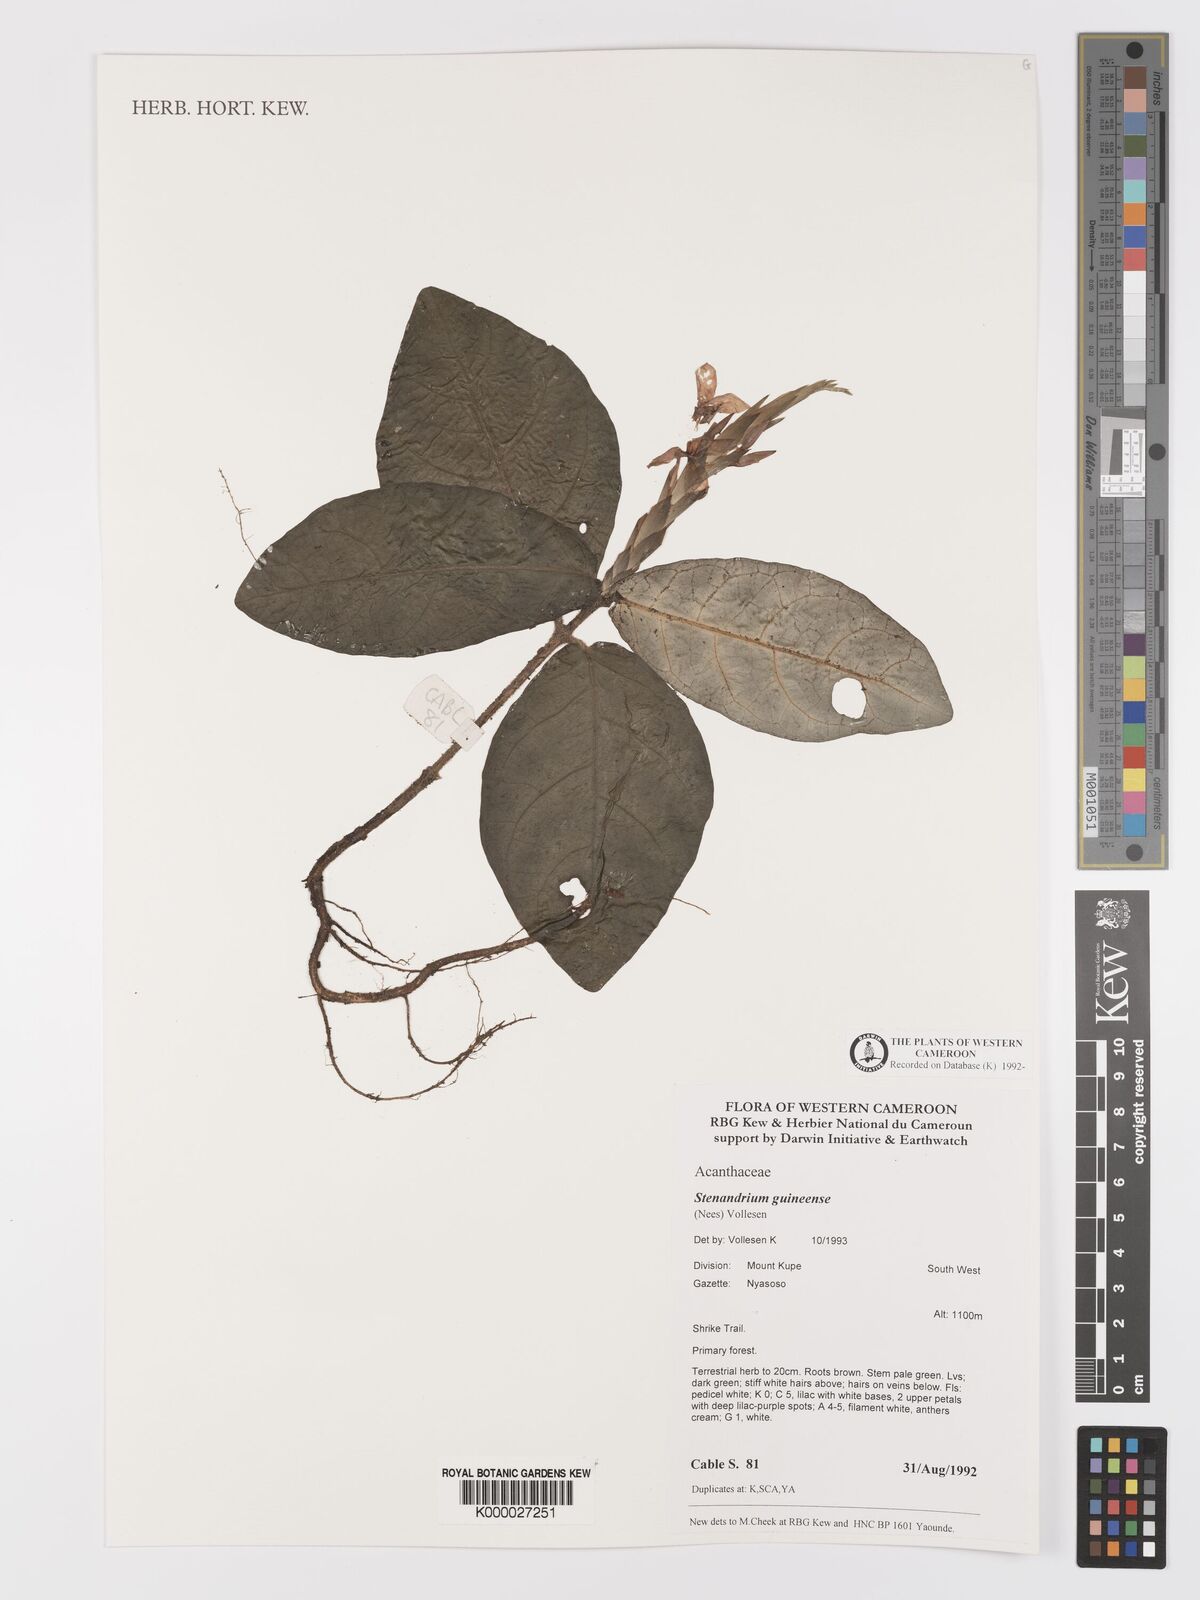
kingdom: Plantae
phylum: Tracheophyta
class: Magnoliopsida
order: Lamiales
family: Acanthaceae
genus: Stenandriopsis
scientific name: Stenandriopsis guineensis
